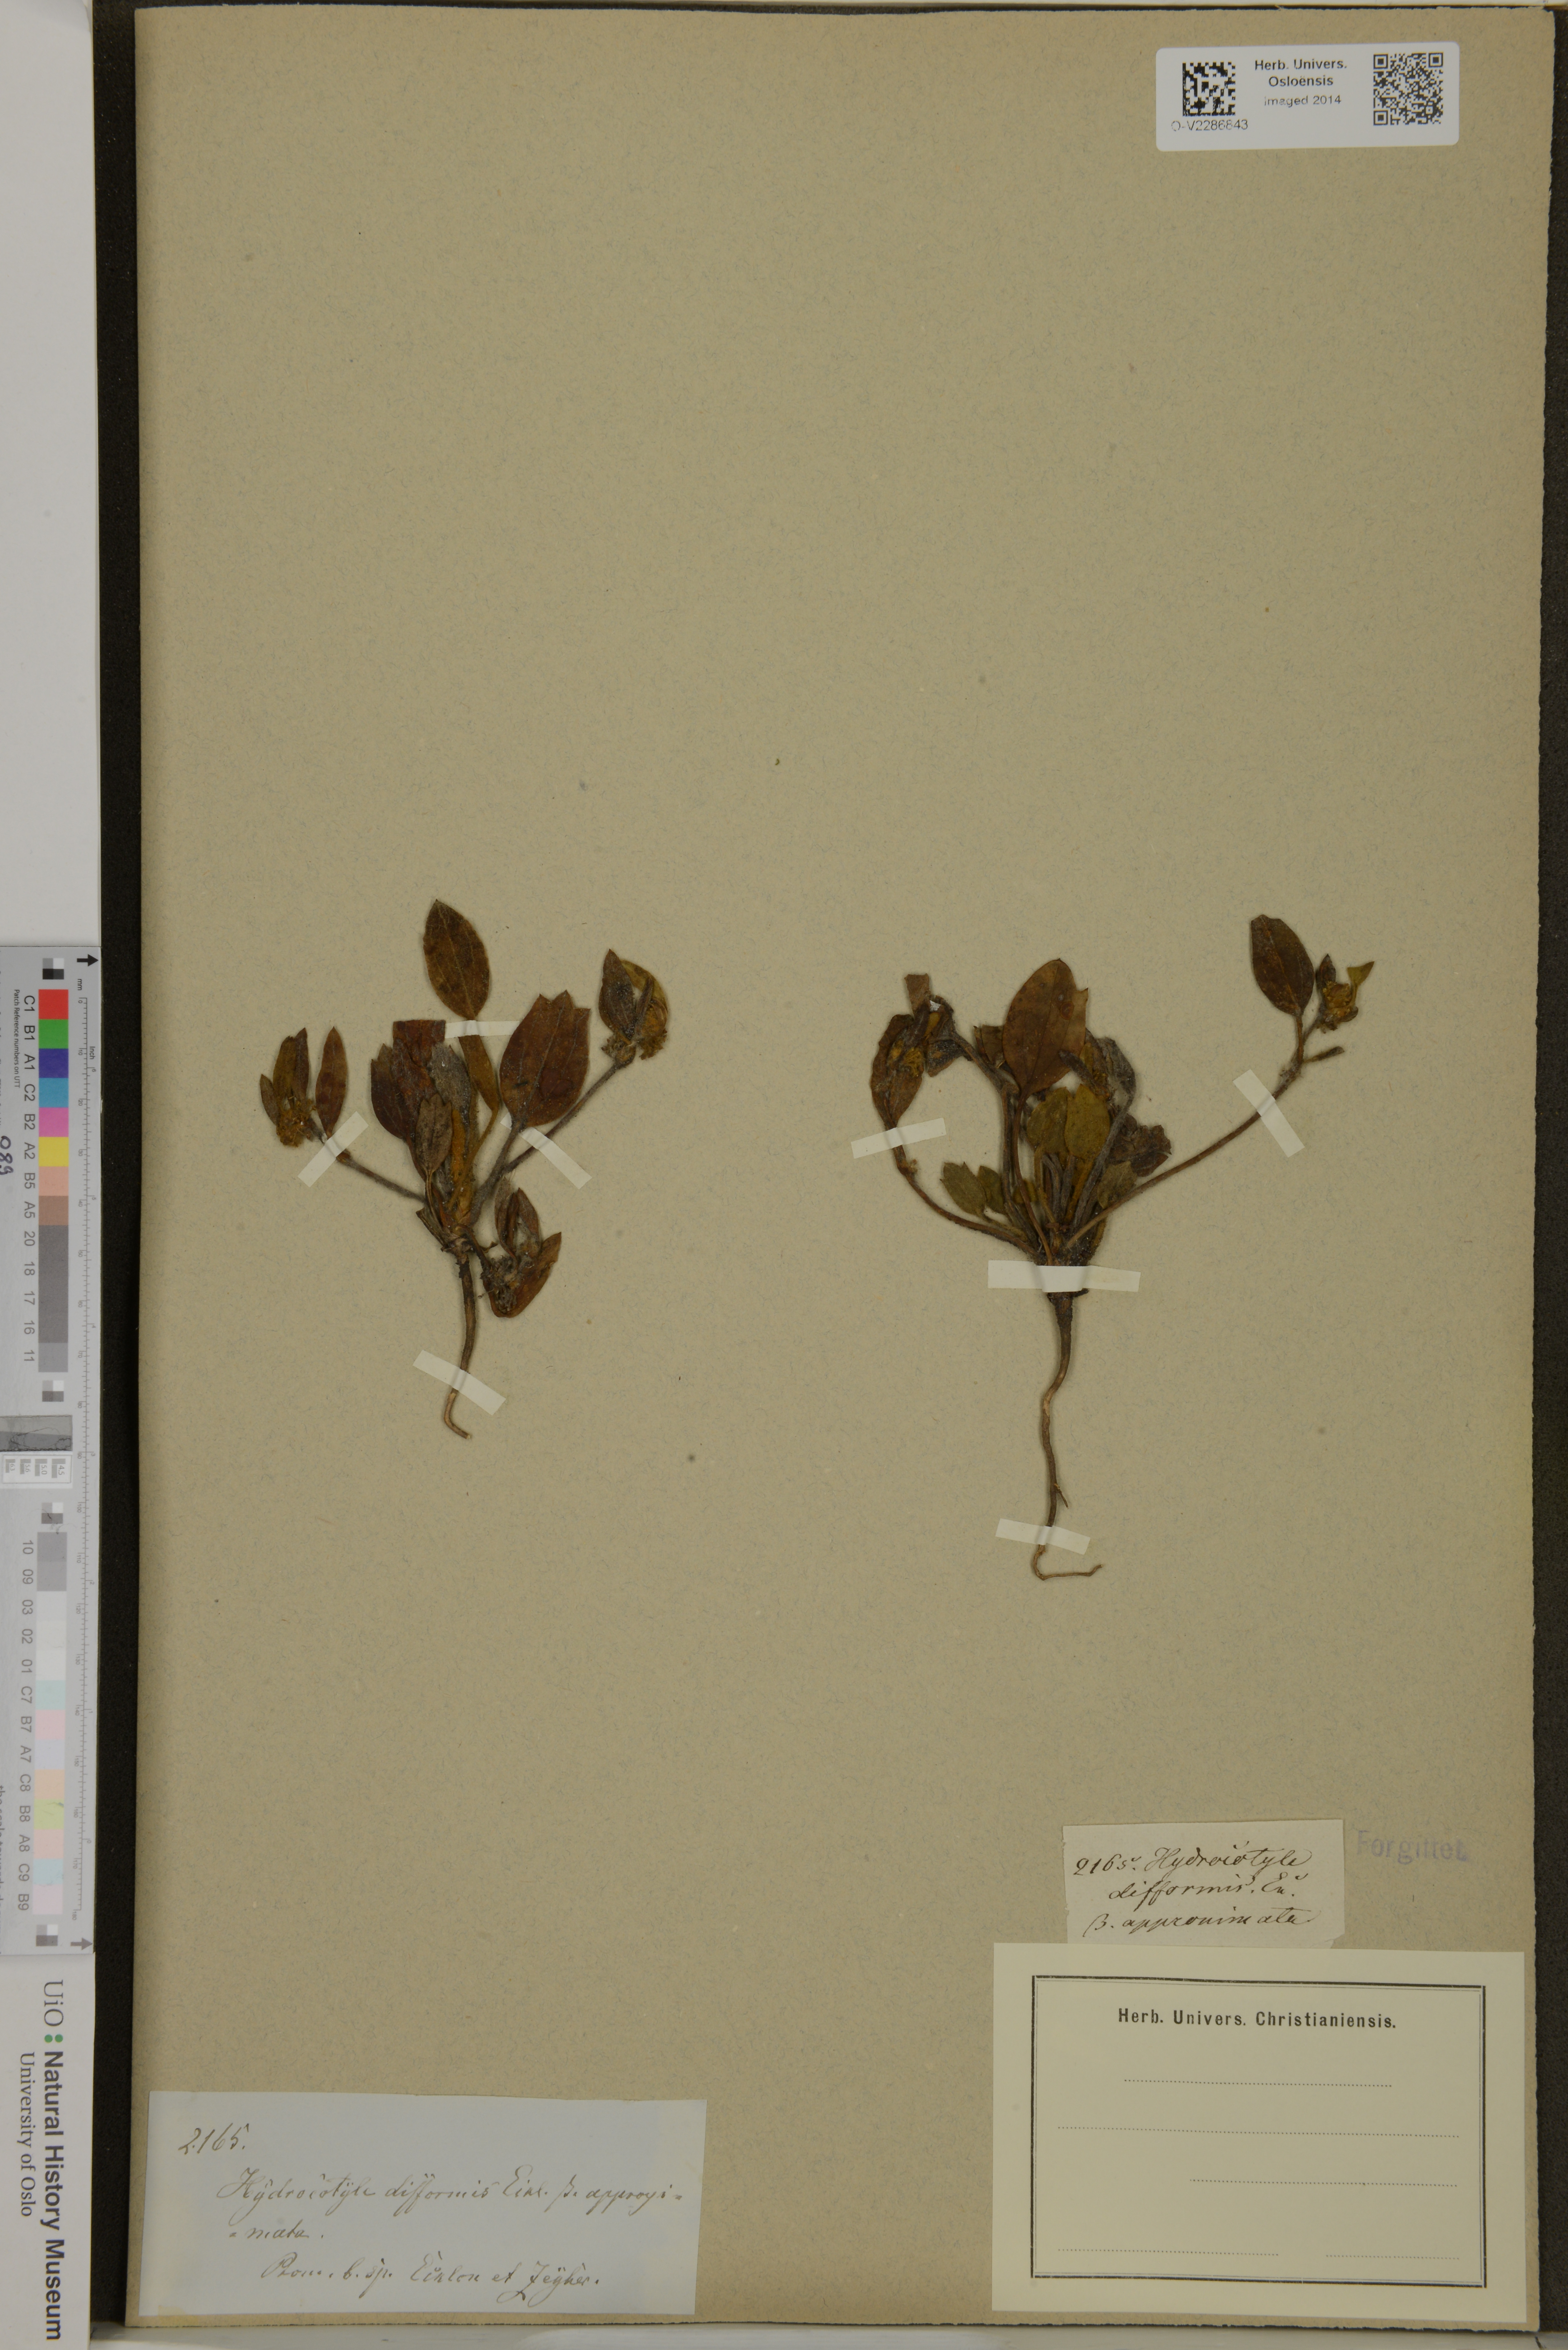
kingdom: Plantae
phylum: Tracheophyta
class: Magnoliopsida
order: Apiales
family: Apiaceae
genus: Centella
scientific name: Centella difformis
